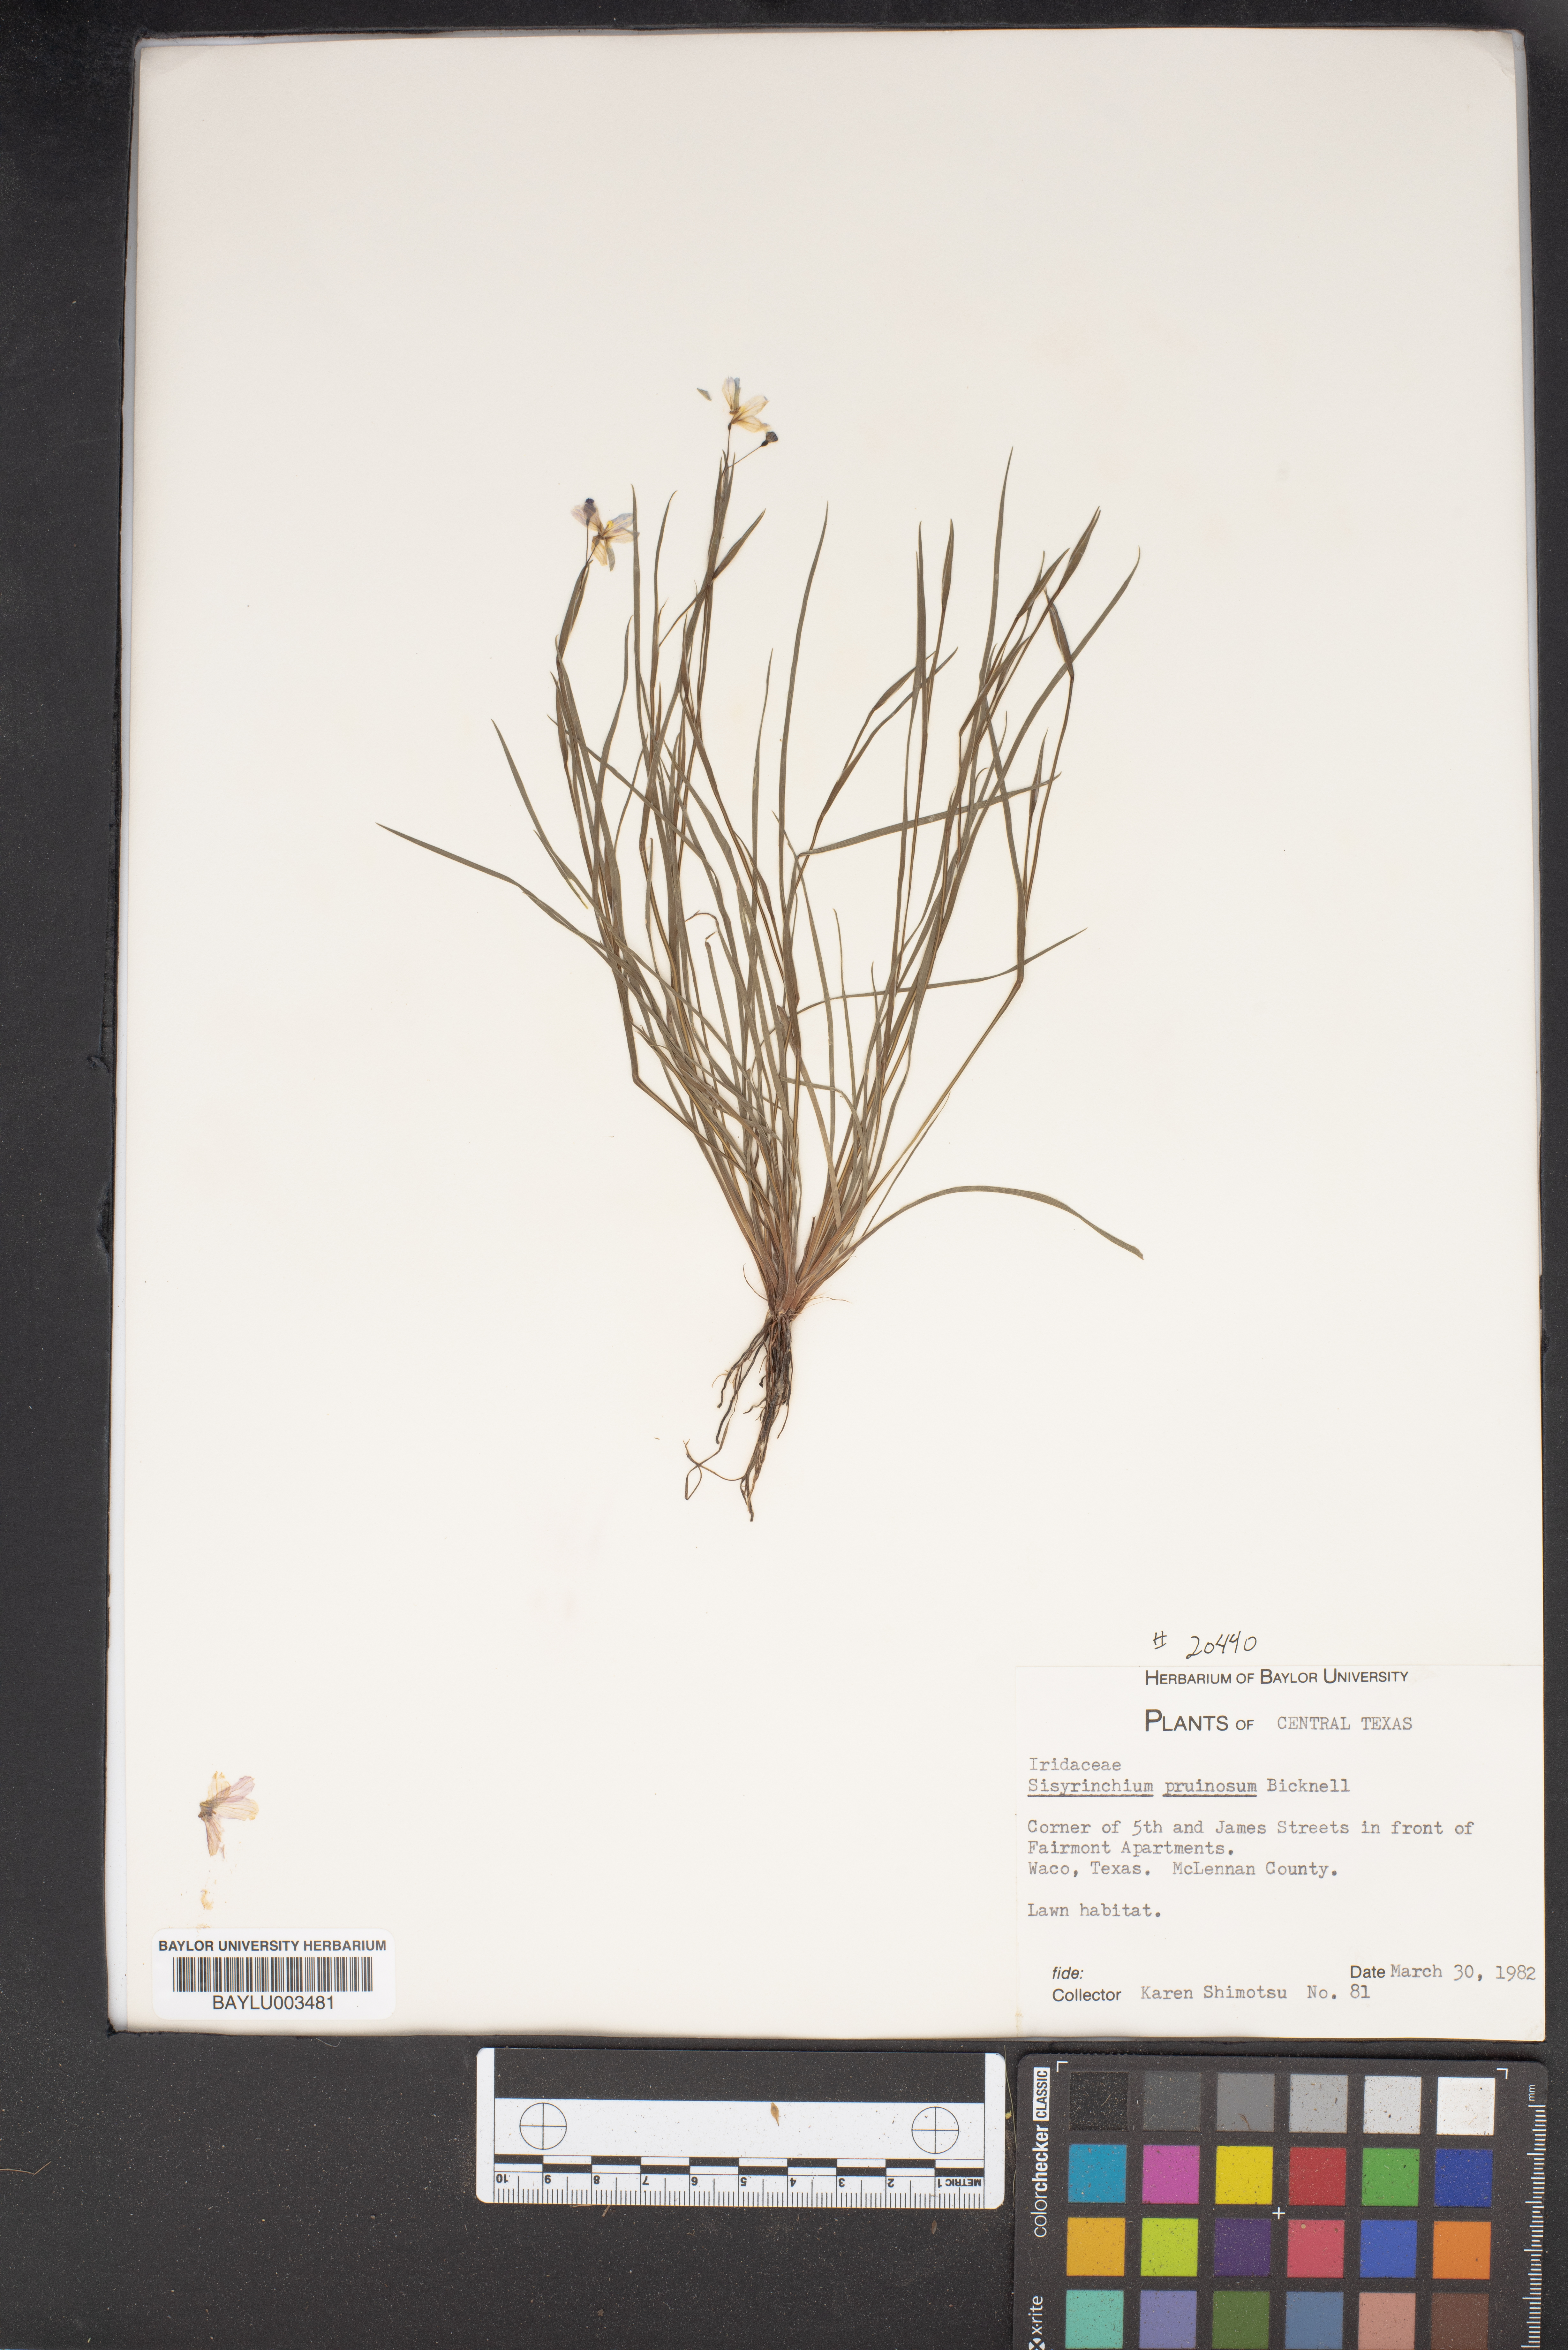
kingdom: Plantae
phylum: Tracheophyta
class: Liliopsida
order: Asparagales
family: Iridaceae
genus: Sisyrinchium
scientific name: Sisyrinchium pruinosum
